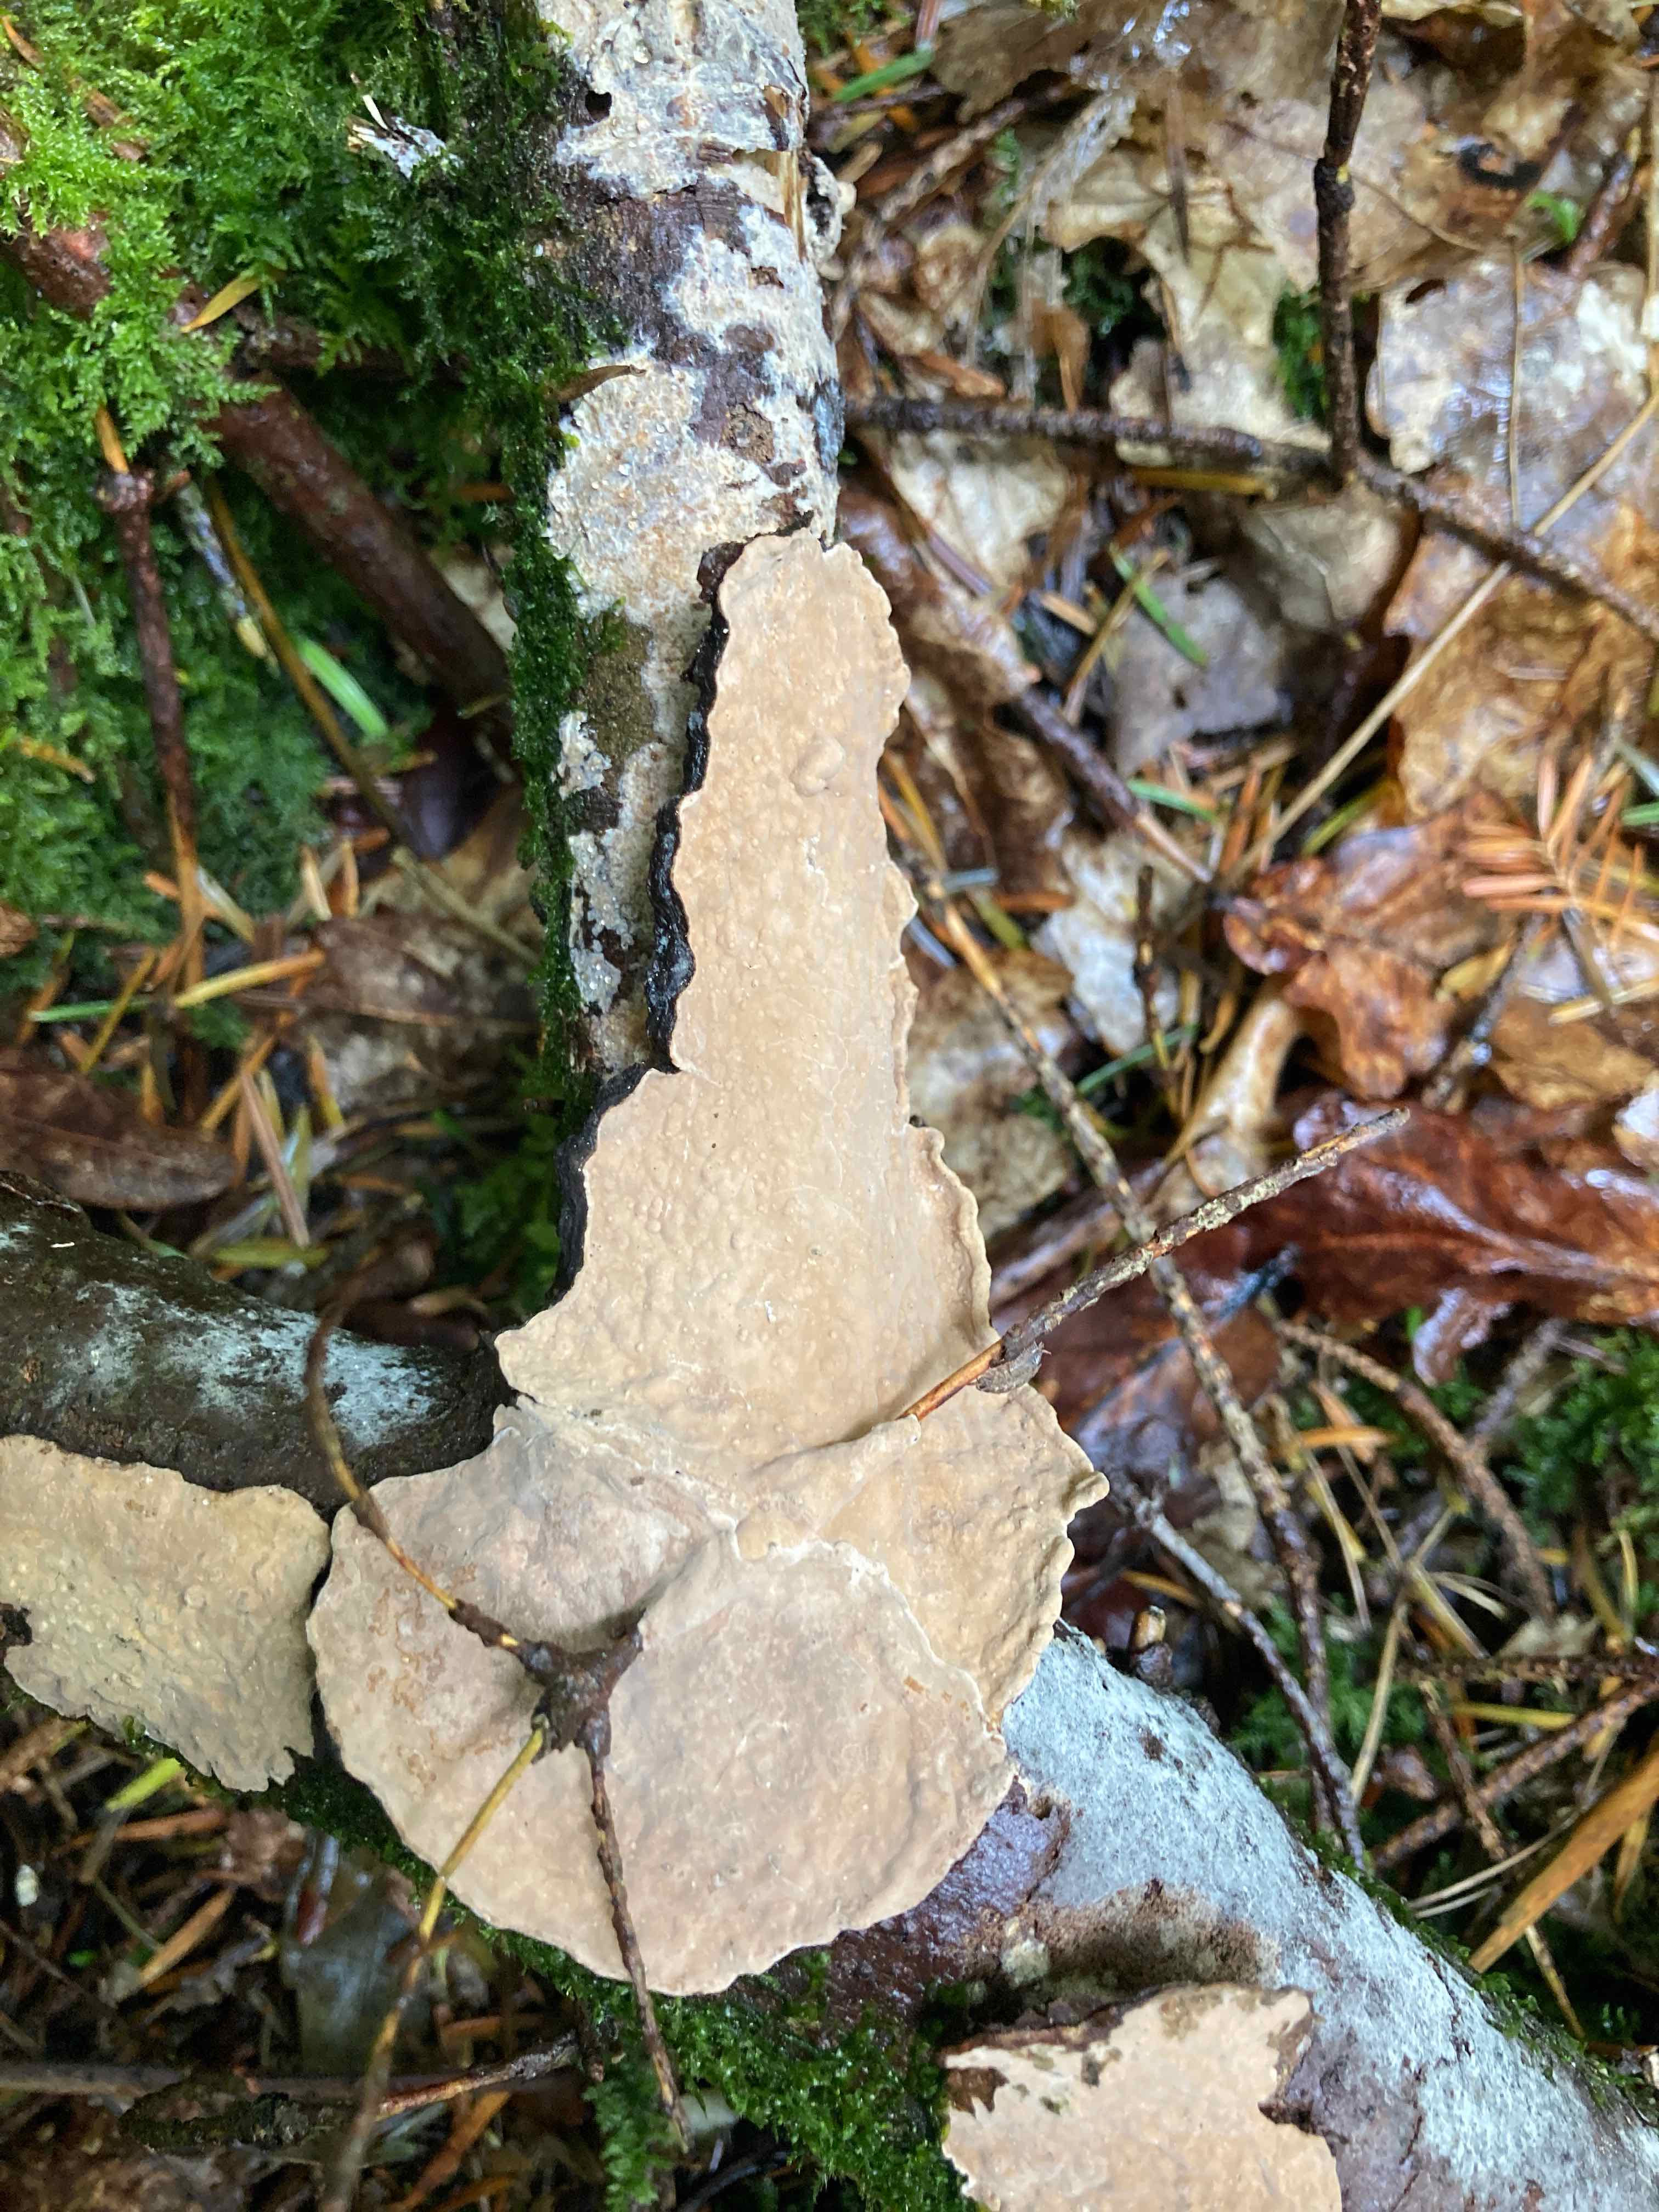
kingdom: Fungi
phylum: Basidiomycota
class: Agaricomycetes
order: Russulales
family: Echinodontiaceae
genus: Amylostereum
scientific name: Amylostereum chailletii
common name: gran-lædersvamp
